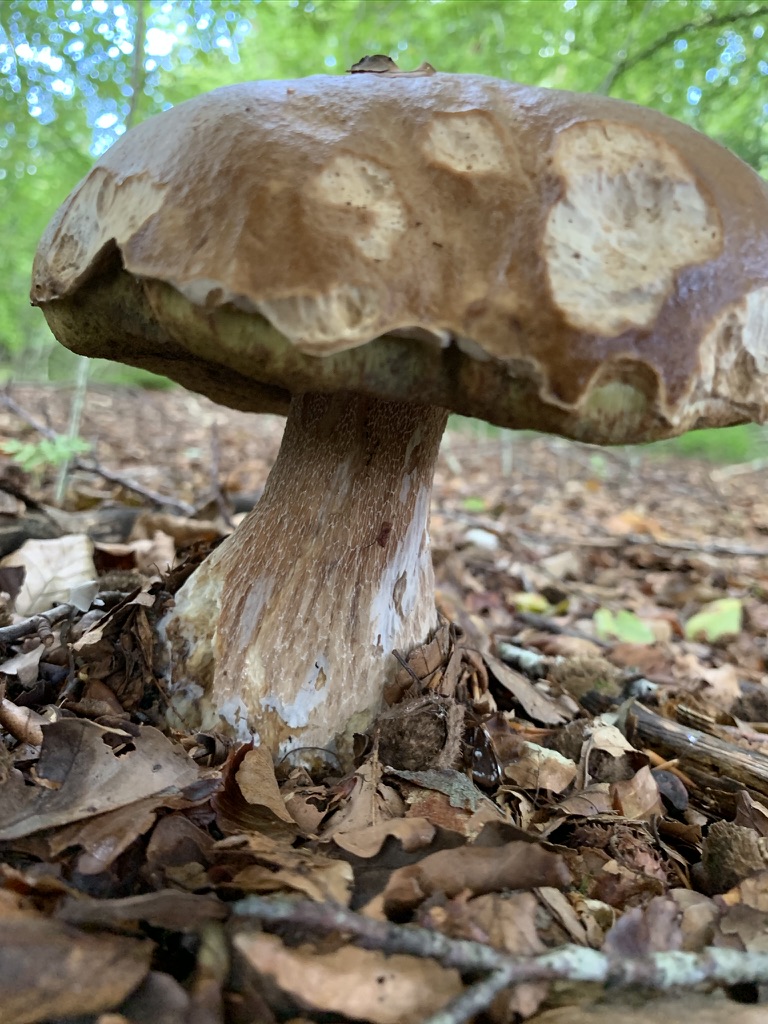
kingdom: Fungi
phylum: Basidiomycota
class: Agaricomycetes
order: Boletales
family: Boletaceae
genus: Boletus
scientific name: Boletus edulis
